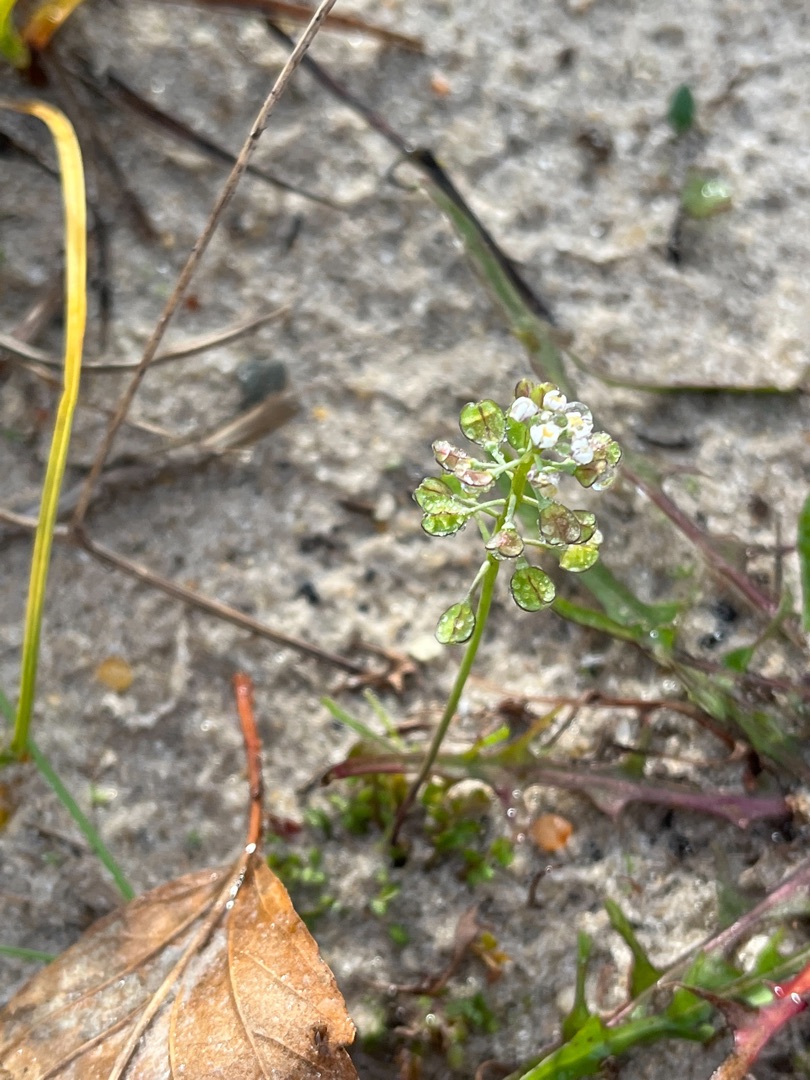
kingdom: Plantae
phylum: Tracheophyta
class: Magnoliopsida
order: Brassicales
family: Brassicaceae
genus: Teesdalia
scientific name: Teesdalia nudicaulis
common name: Flipkrave
